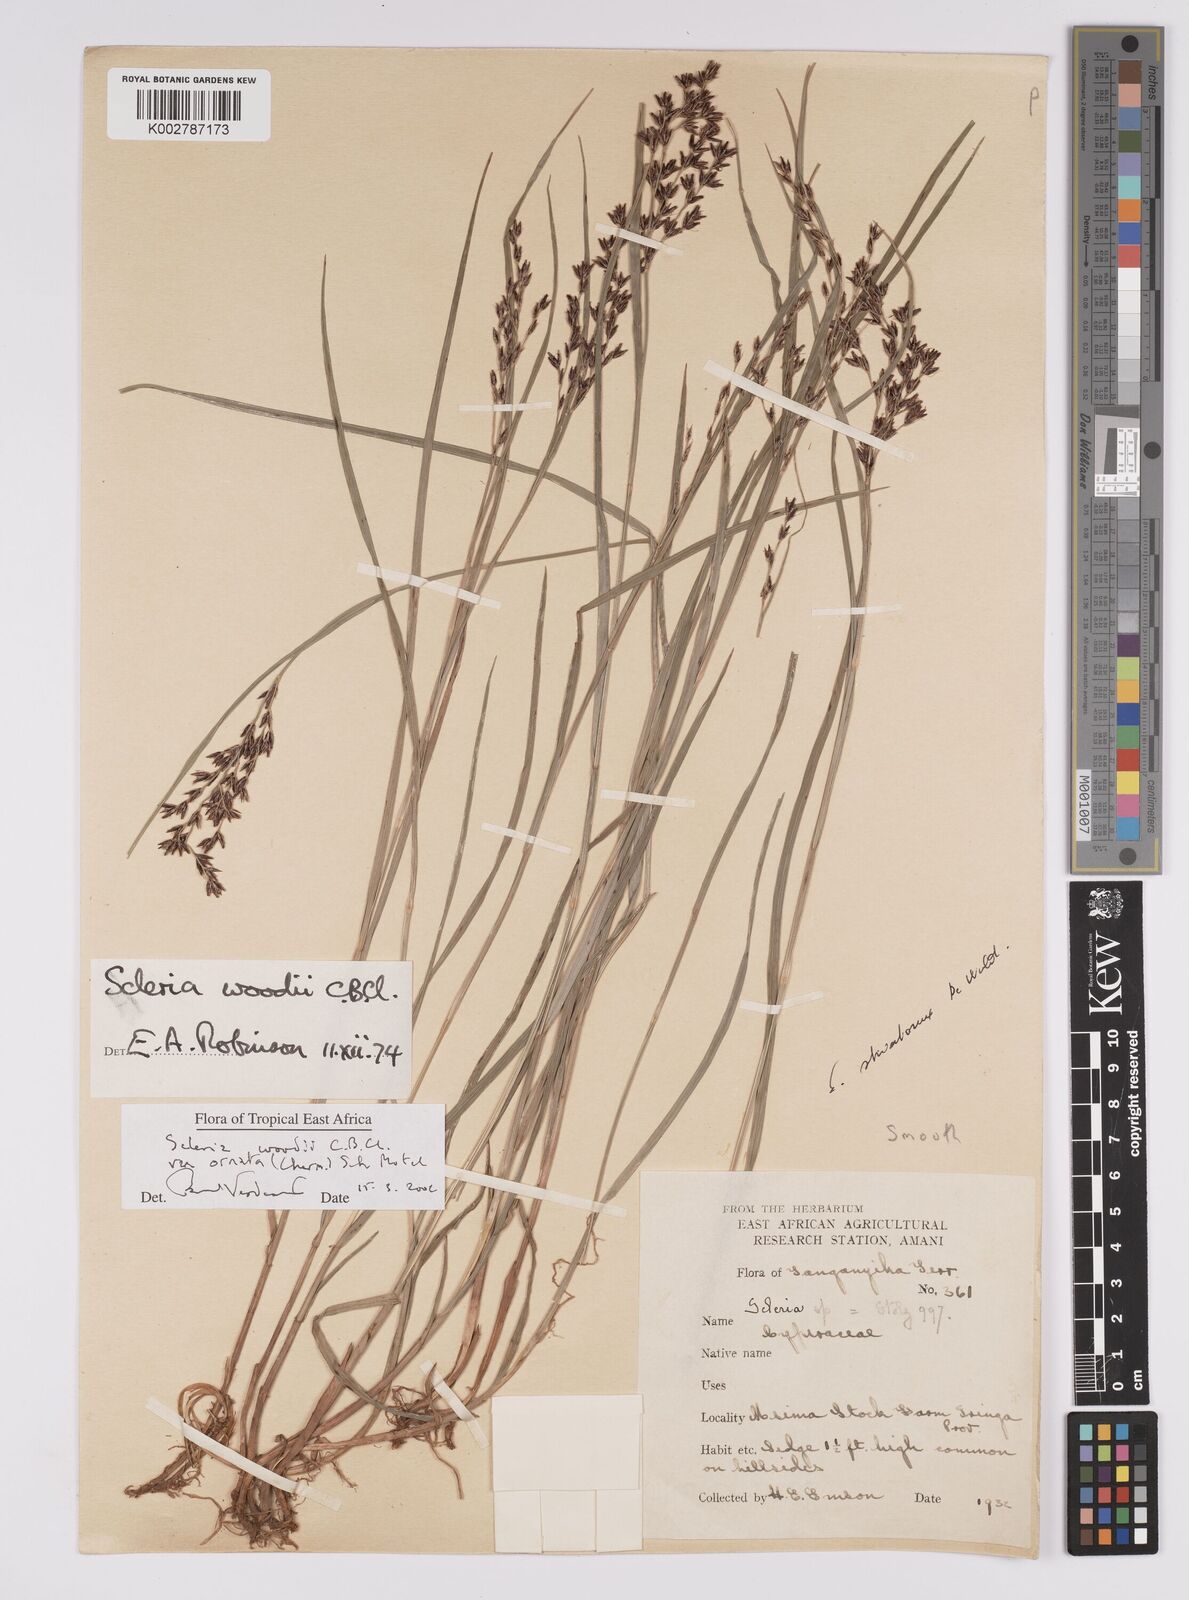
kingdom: Plantae
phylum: Tracheophyta
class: Liliopsida
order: Poales
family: Cyperaceae
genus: Scleria
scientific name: Scleria woodii
